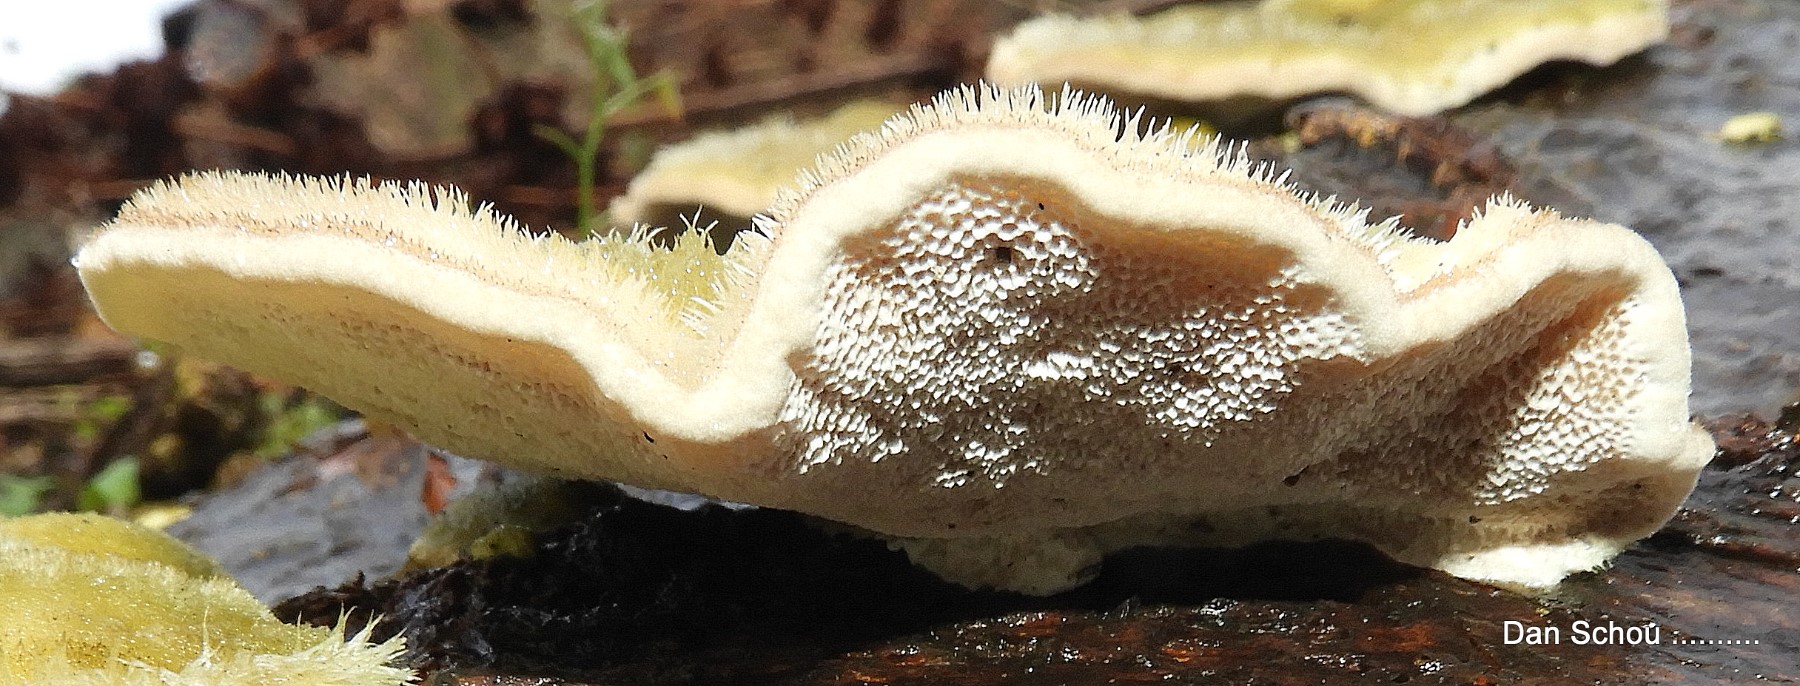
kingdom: Fungi
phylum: Basidiomycota
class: Agaricomycetes
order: Russulales
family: Stereaceae
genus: Stereum
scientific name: Stereum hirsutum
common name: håret lædersvamp
